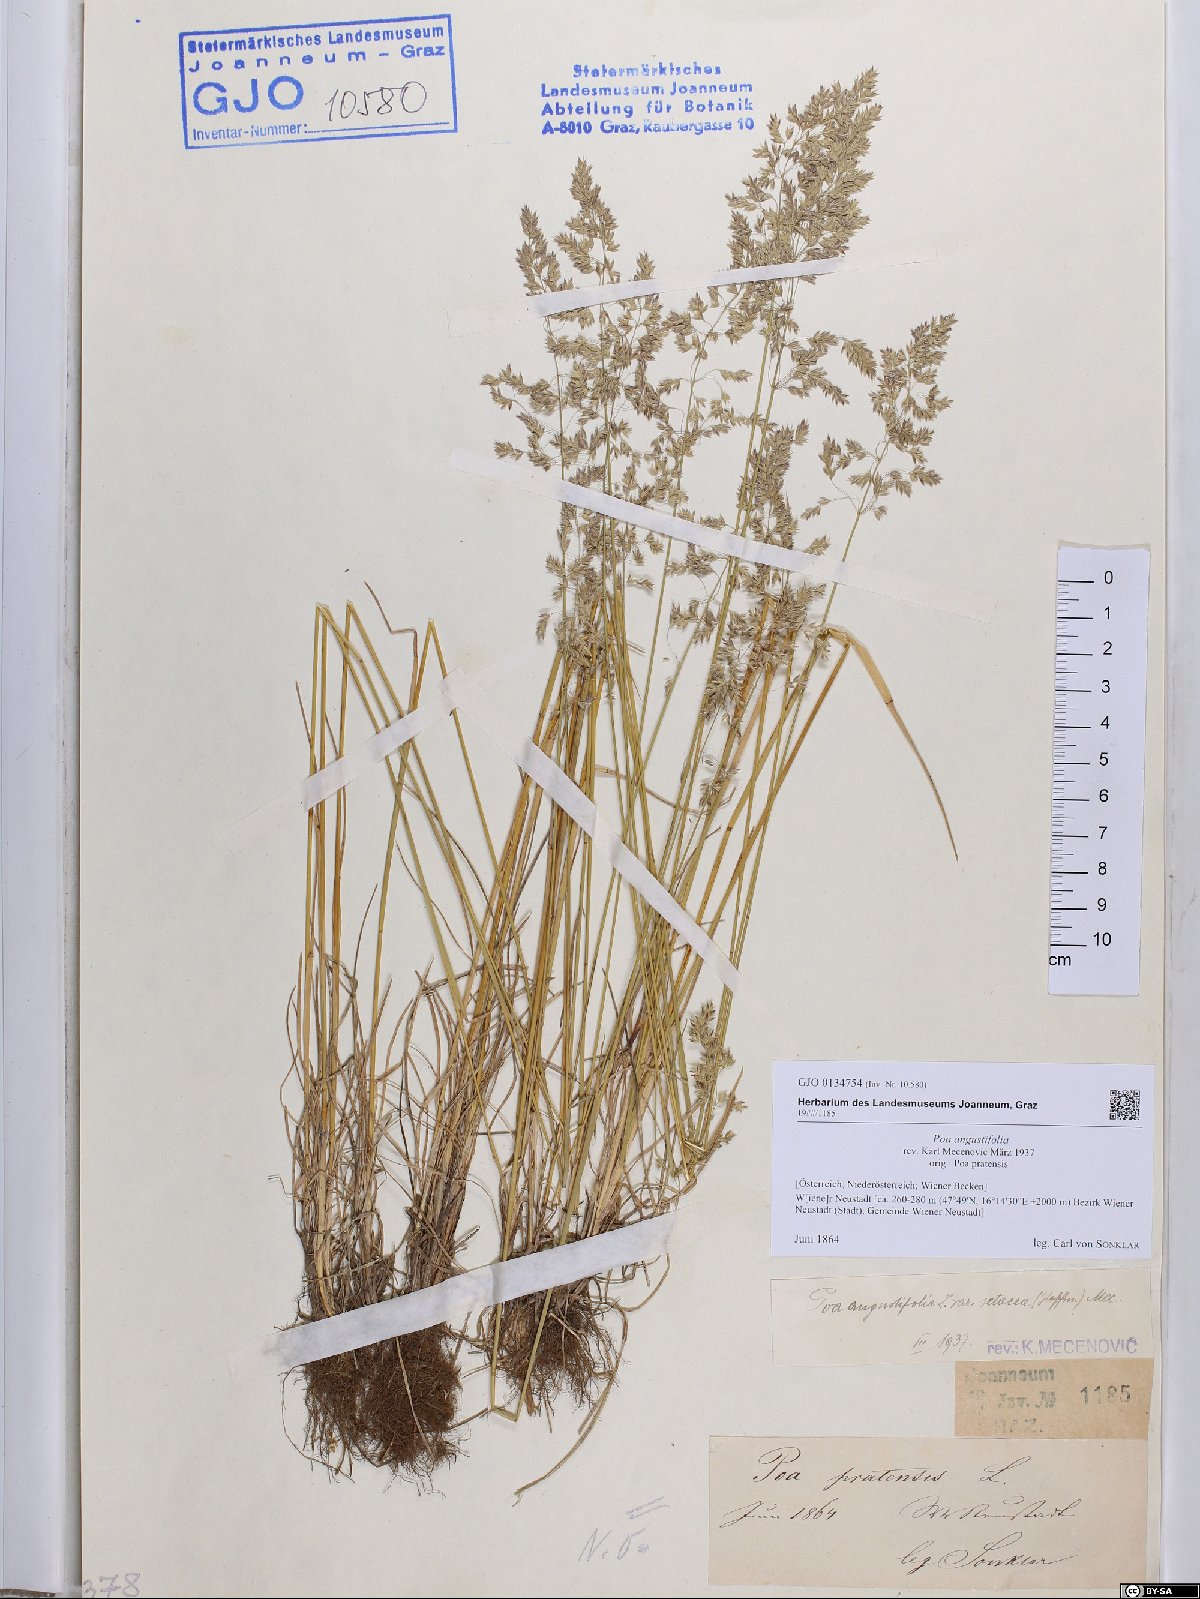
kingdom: Plantae
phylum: Tracheophyta
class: Liliopsida
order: Poales
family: Poaceae
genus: Poa
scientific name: Poa angustifolia
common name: Narrow-leaved meadow-grass
